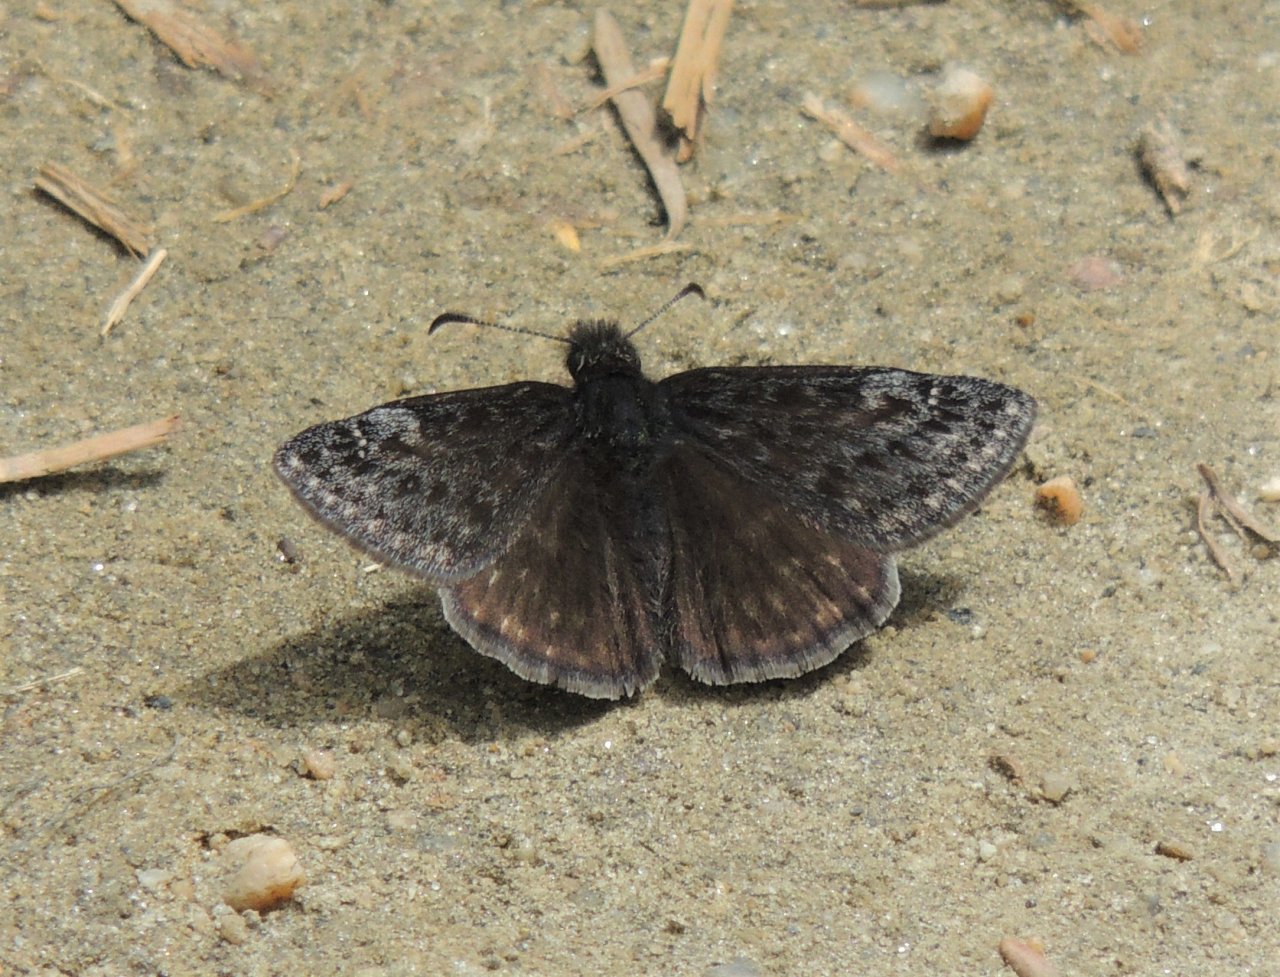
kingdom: Animalia
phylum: Arthropoda
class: Insecta
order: Lepidoptera
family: Hesperiidae
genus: Gesta
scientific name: Gesta
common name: Persius Duskywing
